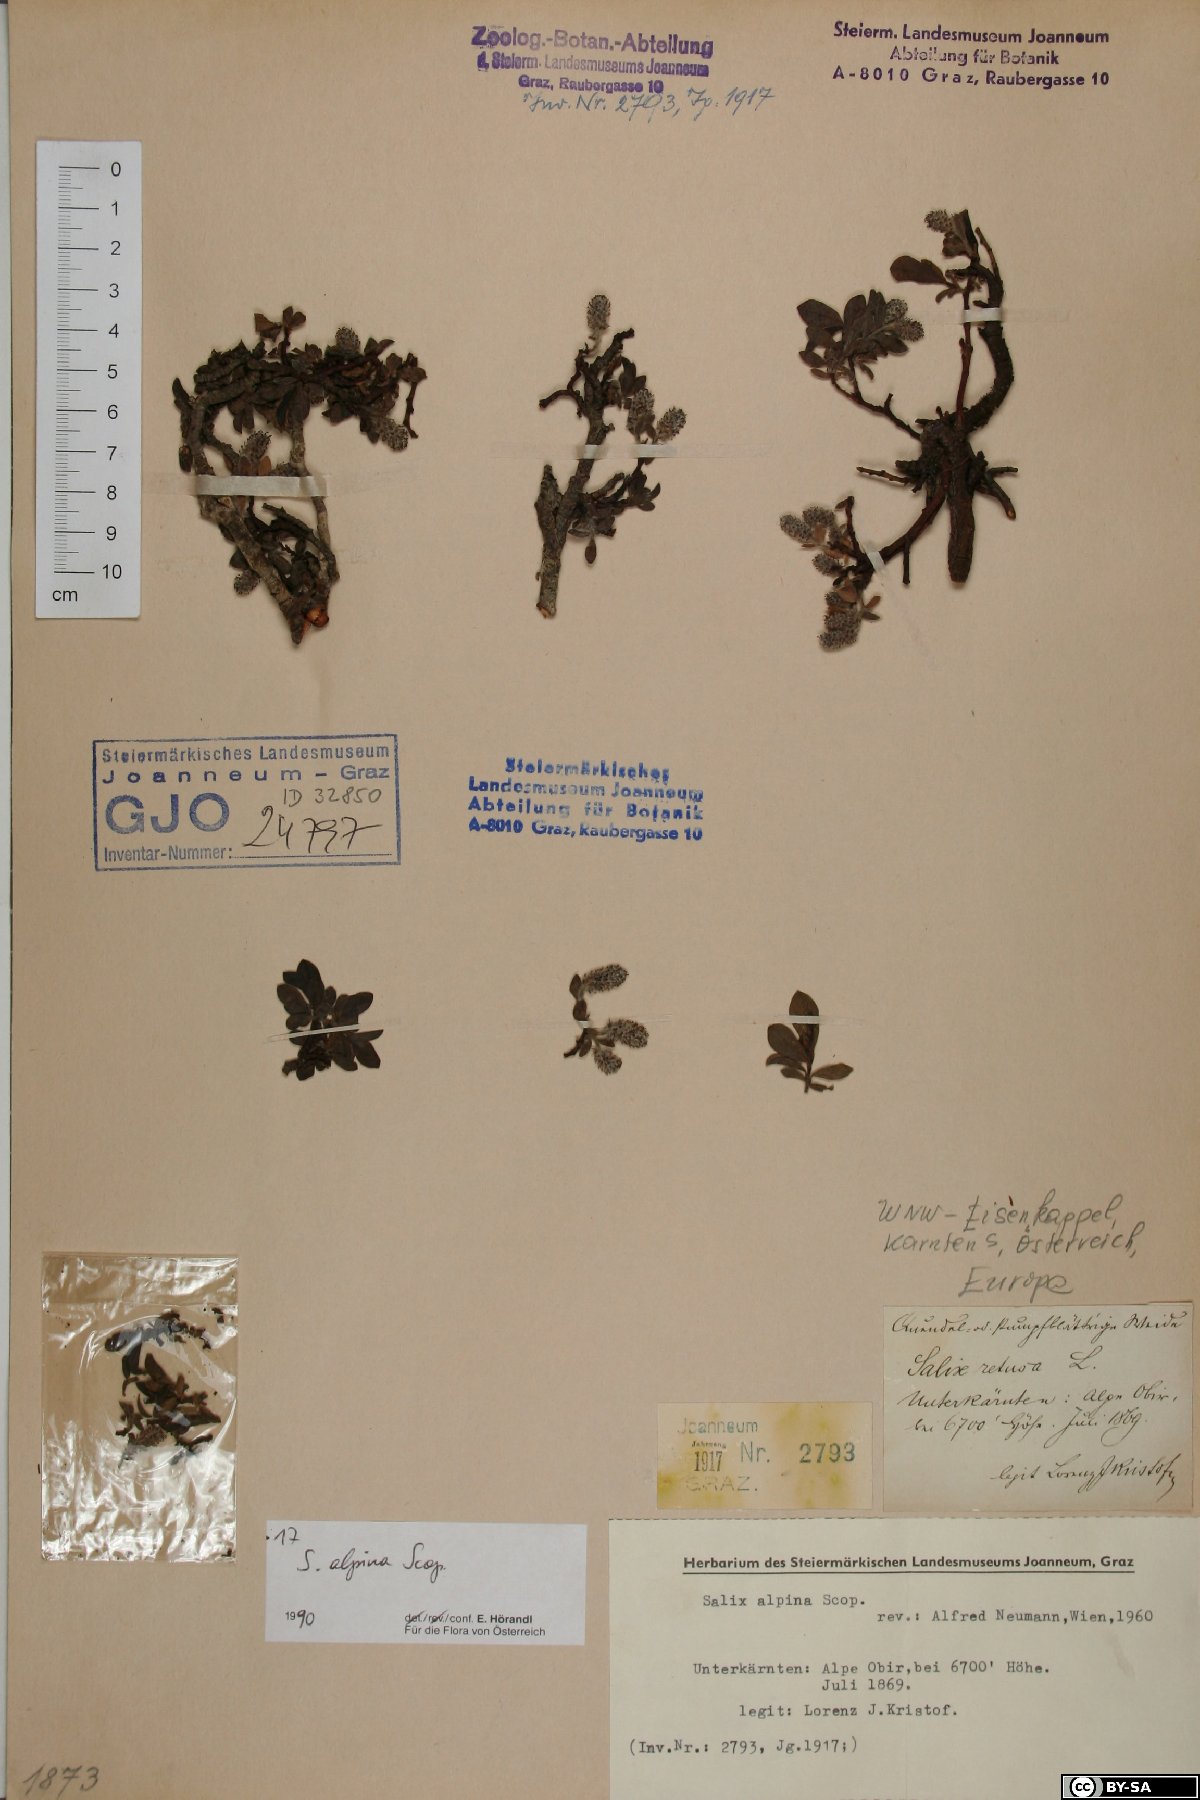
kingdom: Plantae
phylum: Tracheophyta
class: Magnoliopsida
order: Malpighiales
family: Salicaceae
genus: Salix
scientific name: Salix alpina
